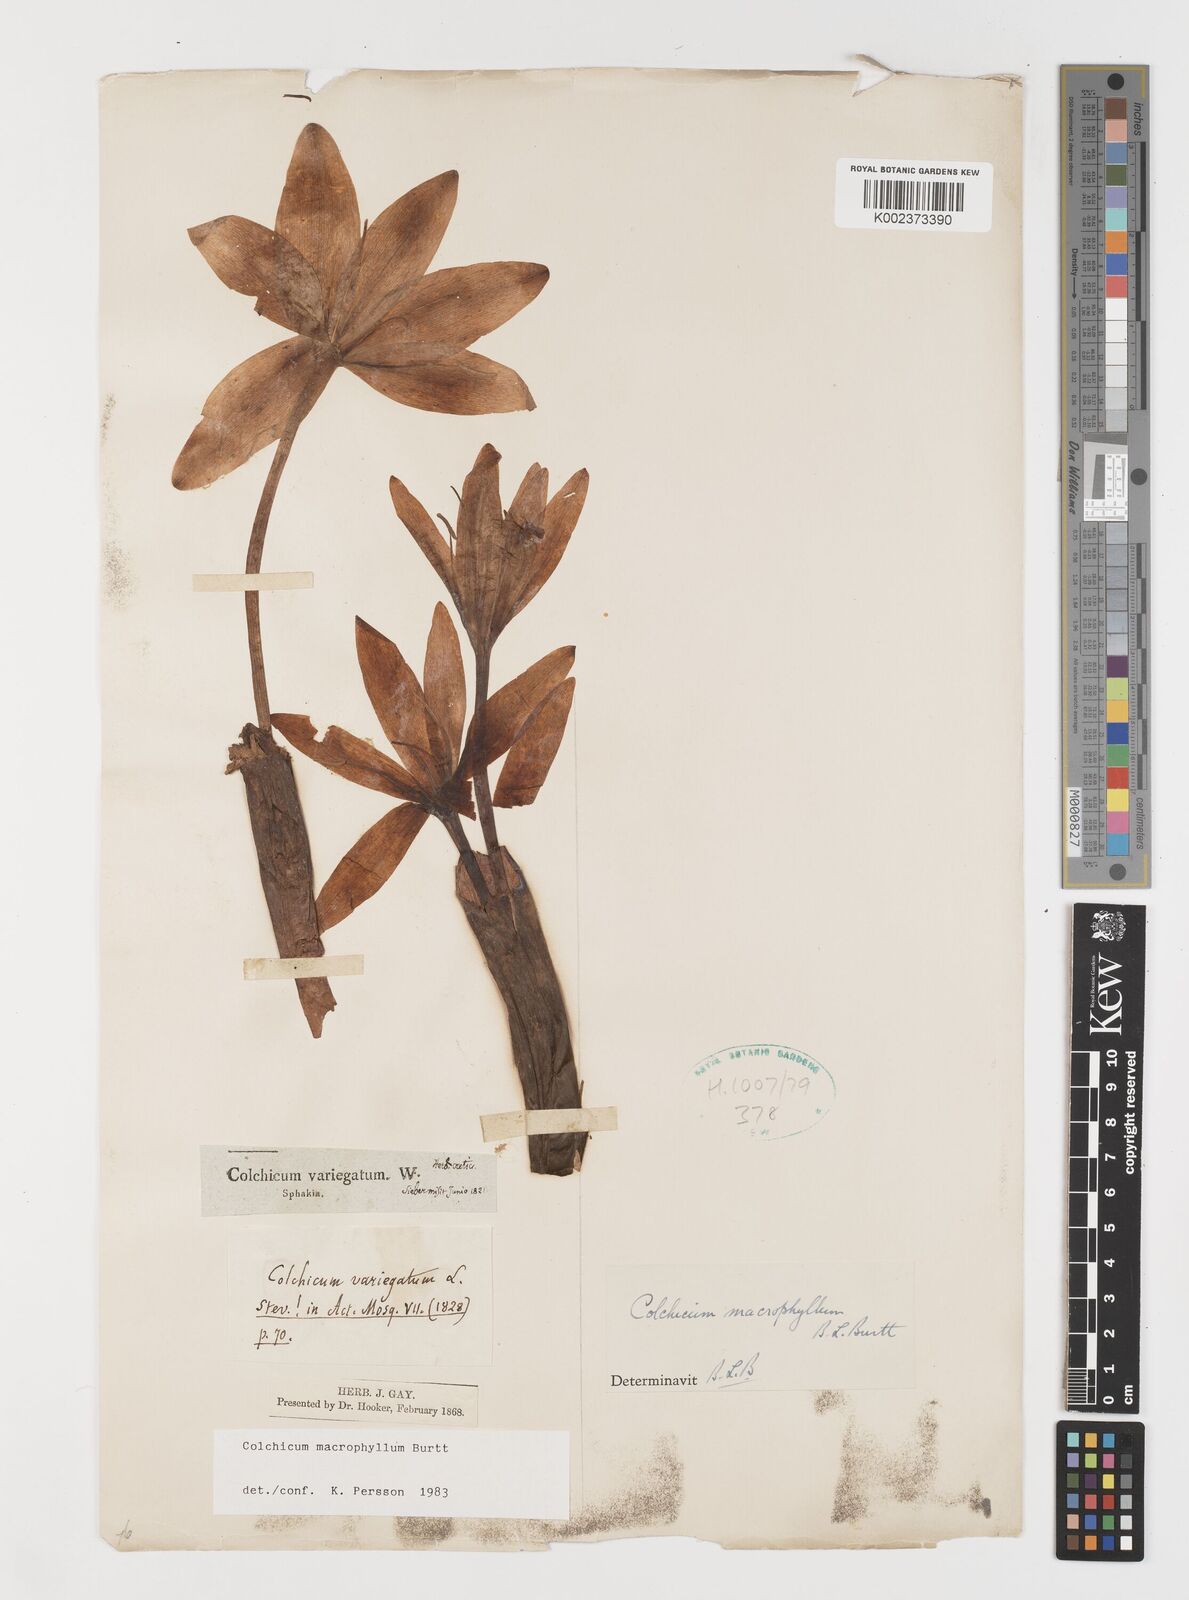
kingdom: Plantae
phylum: Tracheophyta
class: Liliopsida
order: Liliales
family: Colchicaceae
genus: Colchicum
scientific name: Colchicum macrophyllum
